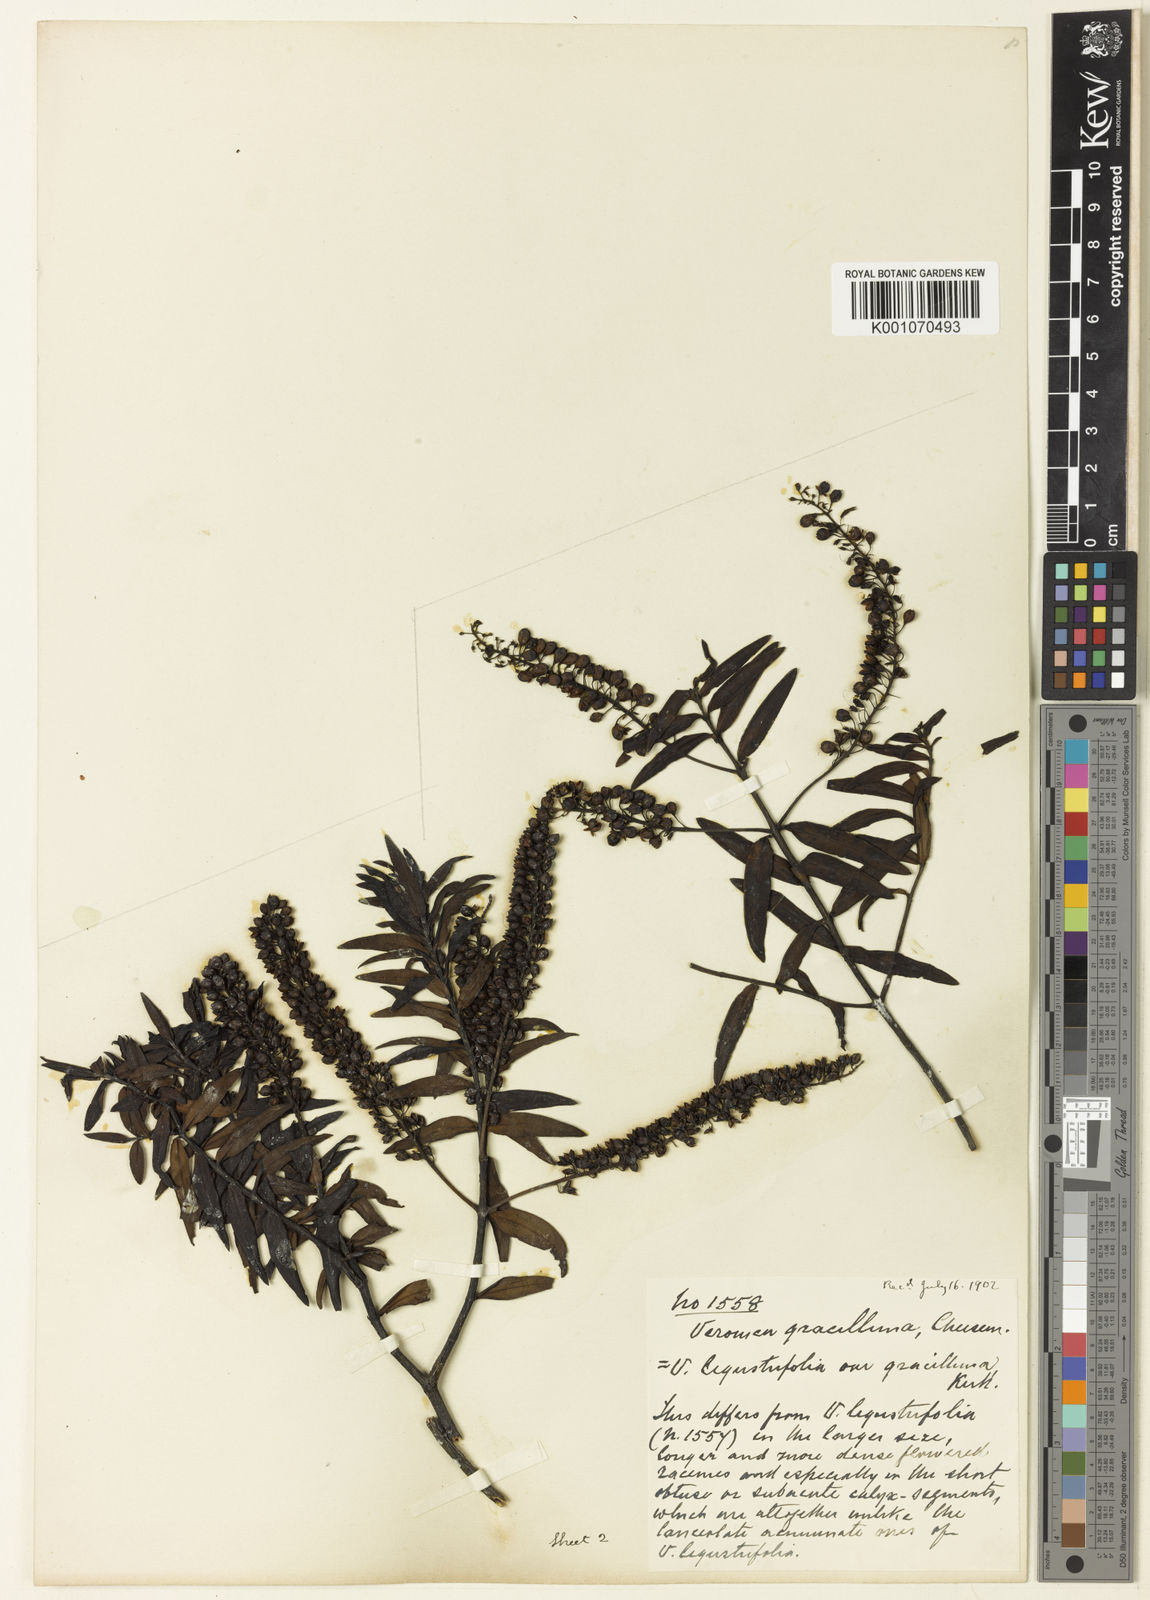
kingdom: Plantae
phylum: Tracheophyta
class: Magnoliopsida
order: Lamiales
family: Plantaginaceae
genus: Veronica
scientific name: Veronica leiophylla
